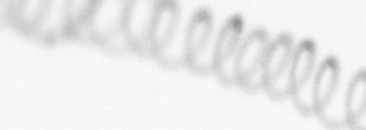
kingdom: Chromista
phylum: Ochrophyta
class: Bacillariophyceae
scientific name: Bacillariophyceae
